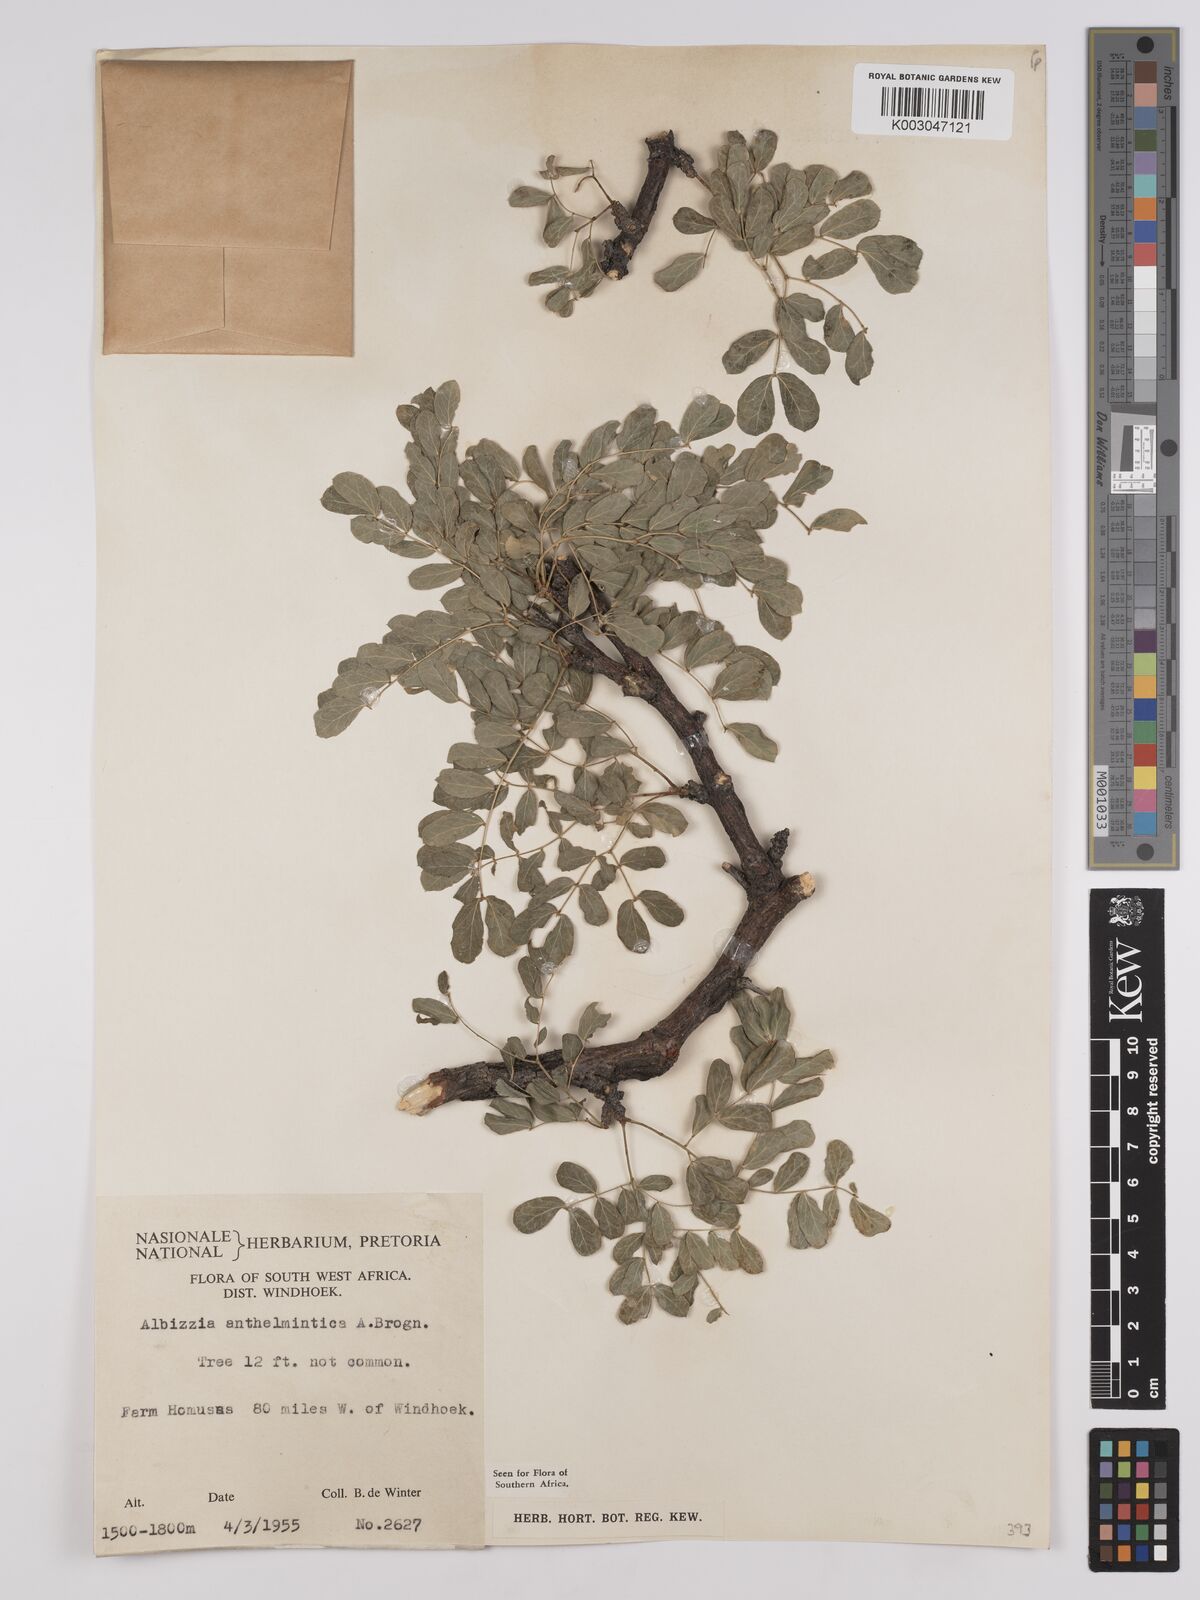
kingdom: Plantae
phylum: Tracheophyta
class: Magnoliopsida
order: Fabales
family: Fabaceae
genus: Albizia
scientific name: Albizia anthelmintica
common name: Worm-bark false-thorn
